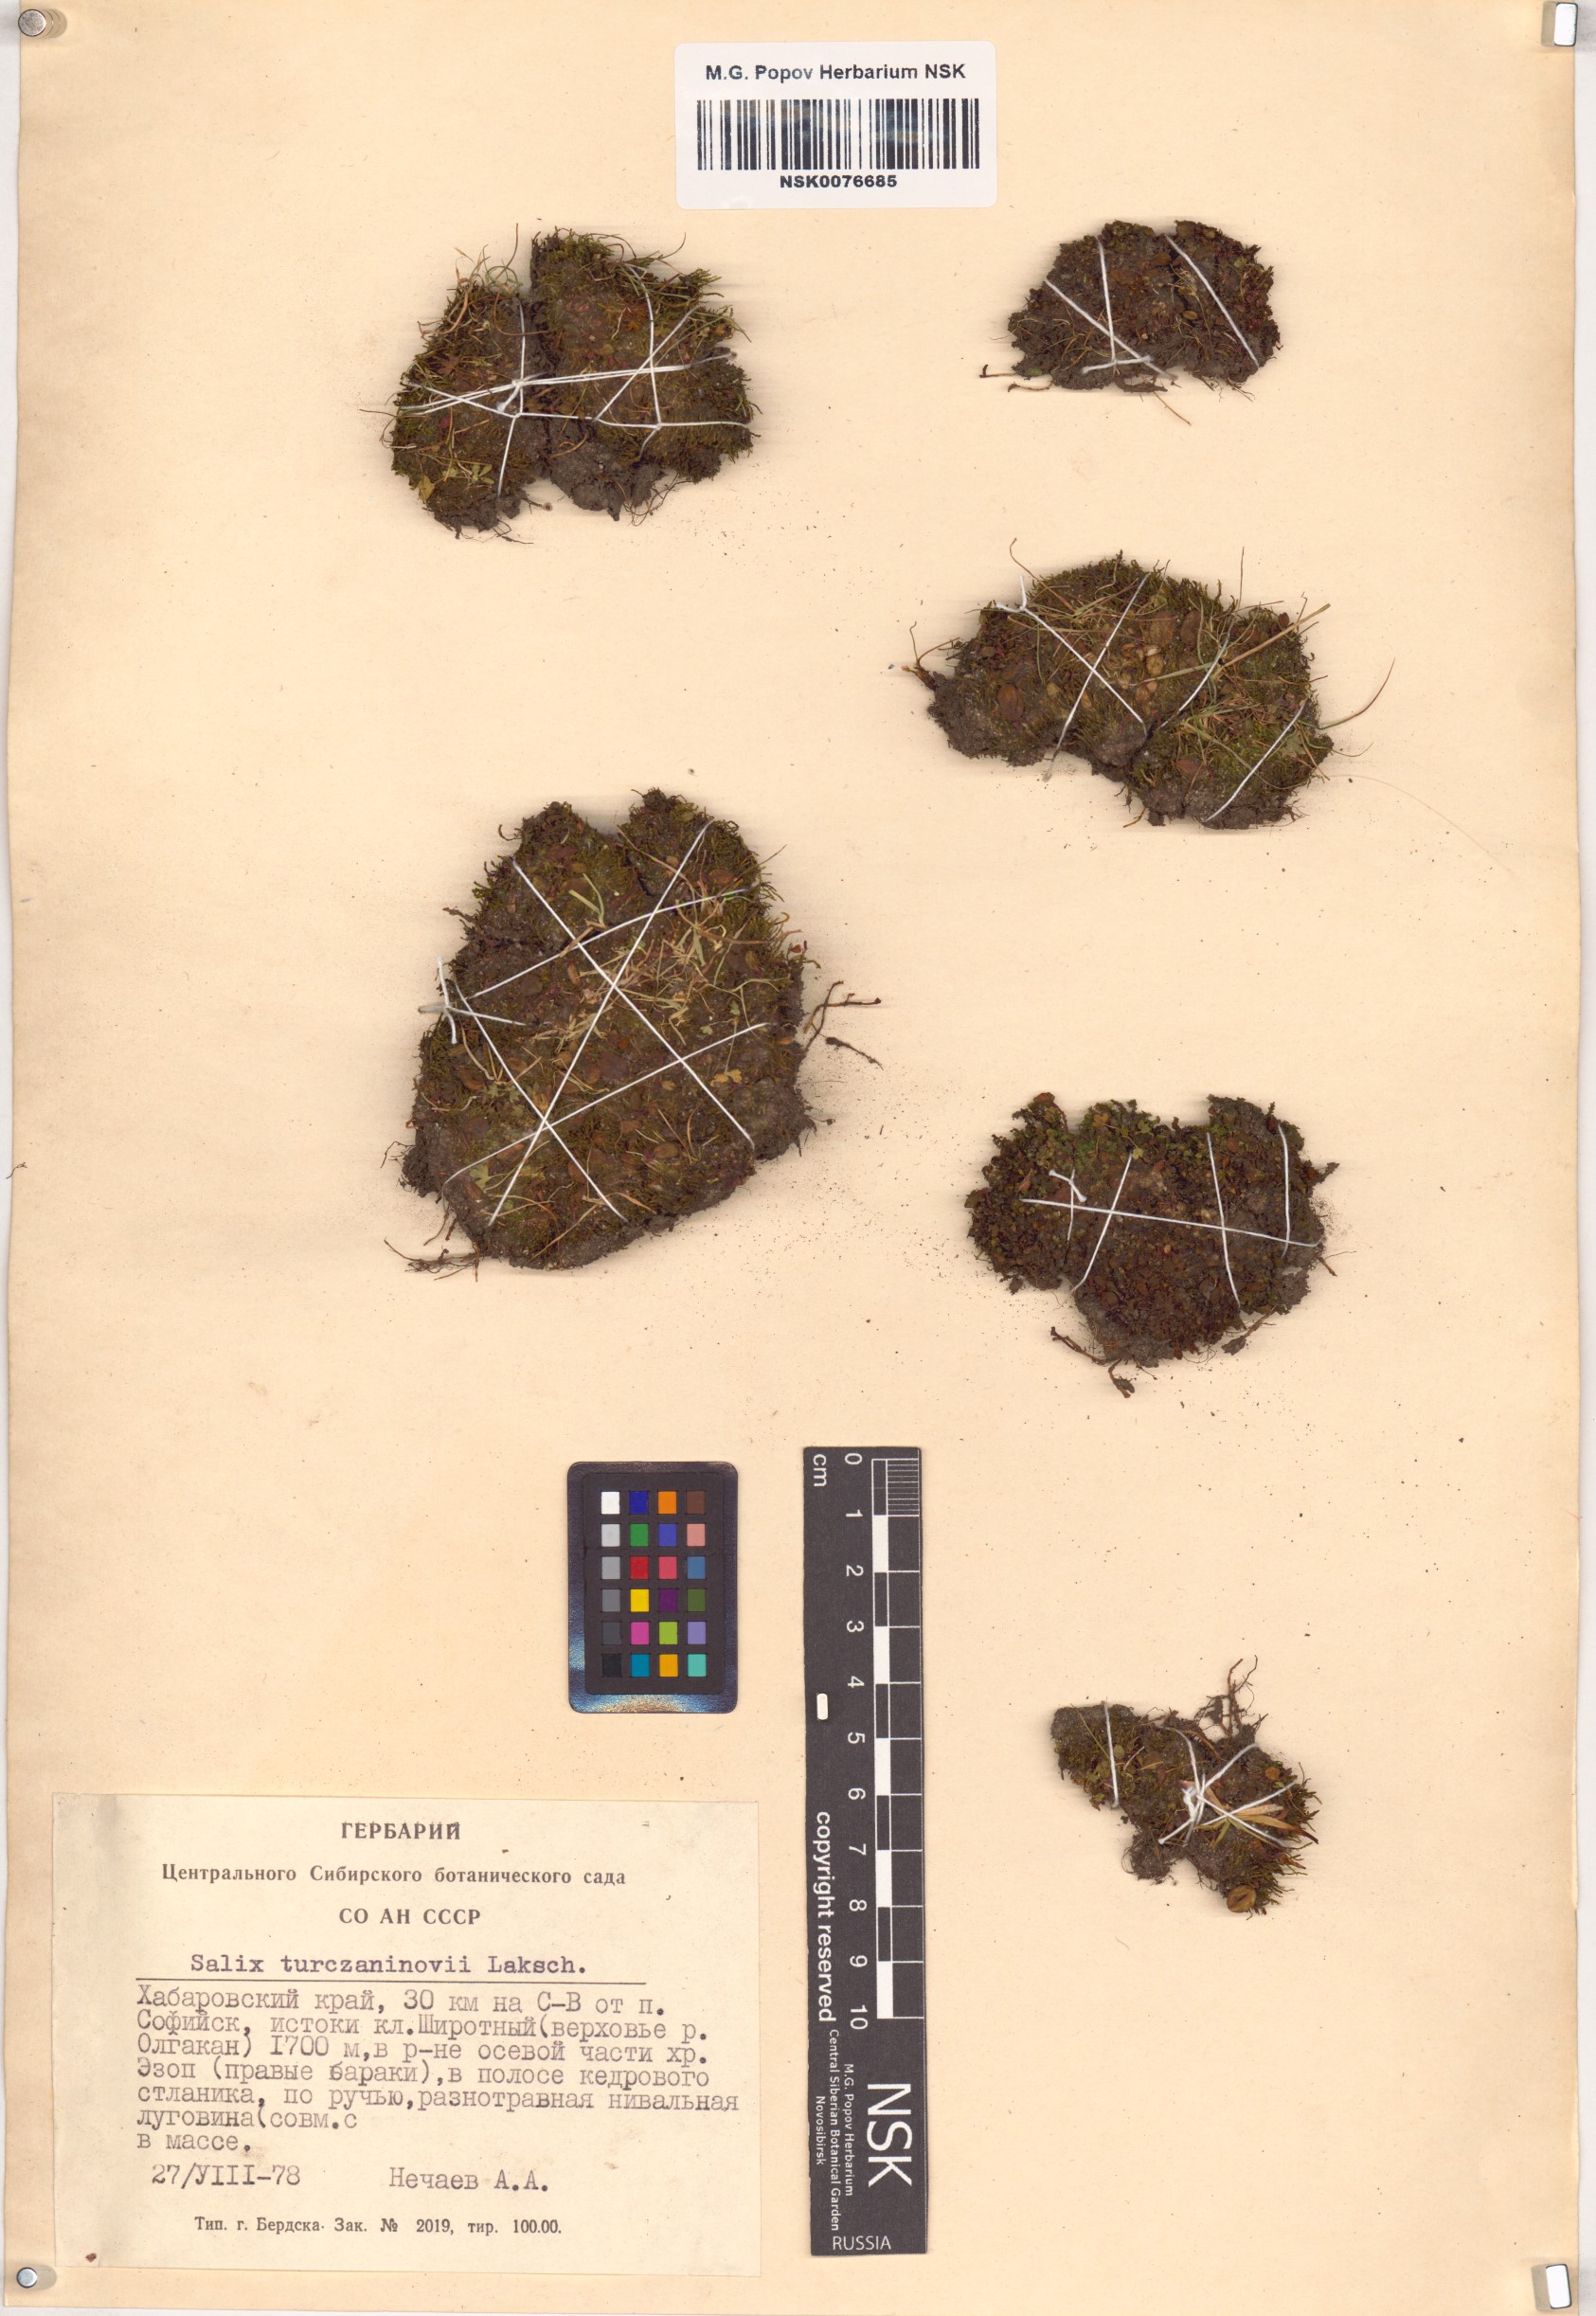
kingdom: Plantae
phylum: Tracheophyta
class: Magnoliopsida
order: Malpighiales
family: Salicaceae
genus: Salix
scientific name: Salix turczaninowii
